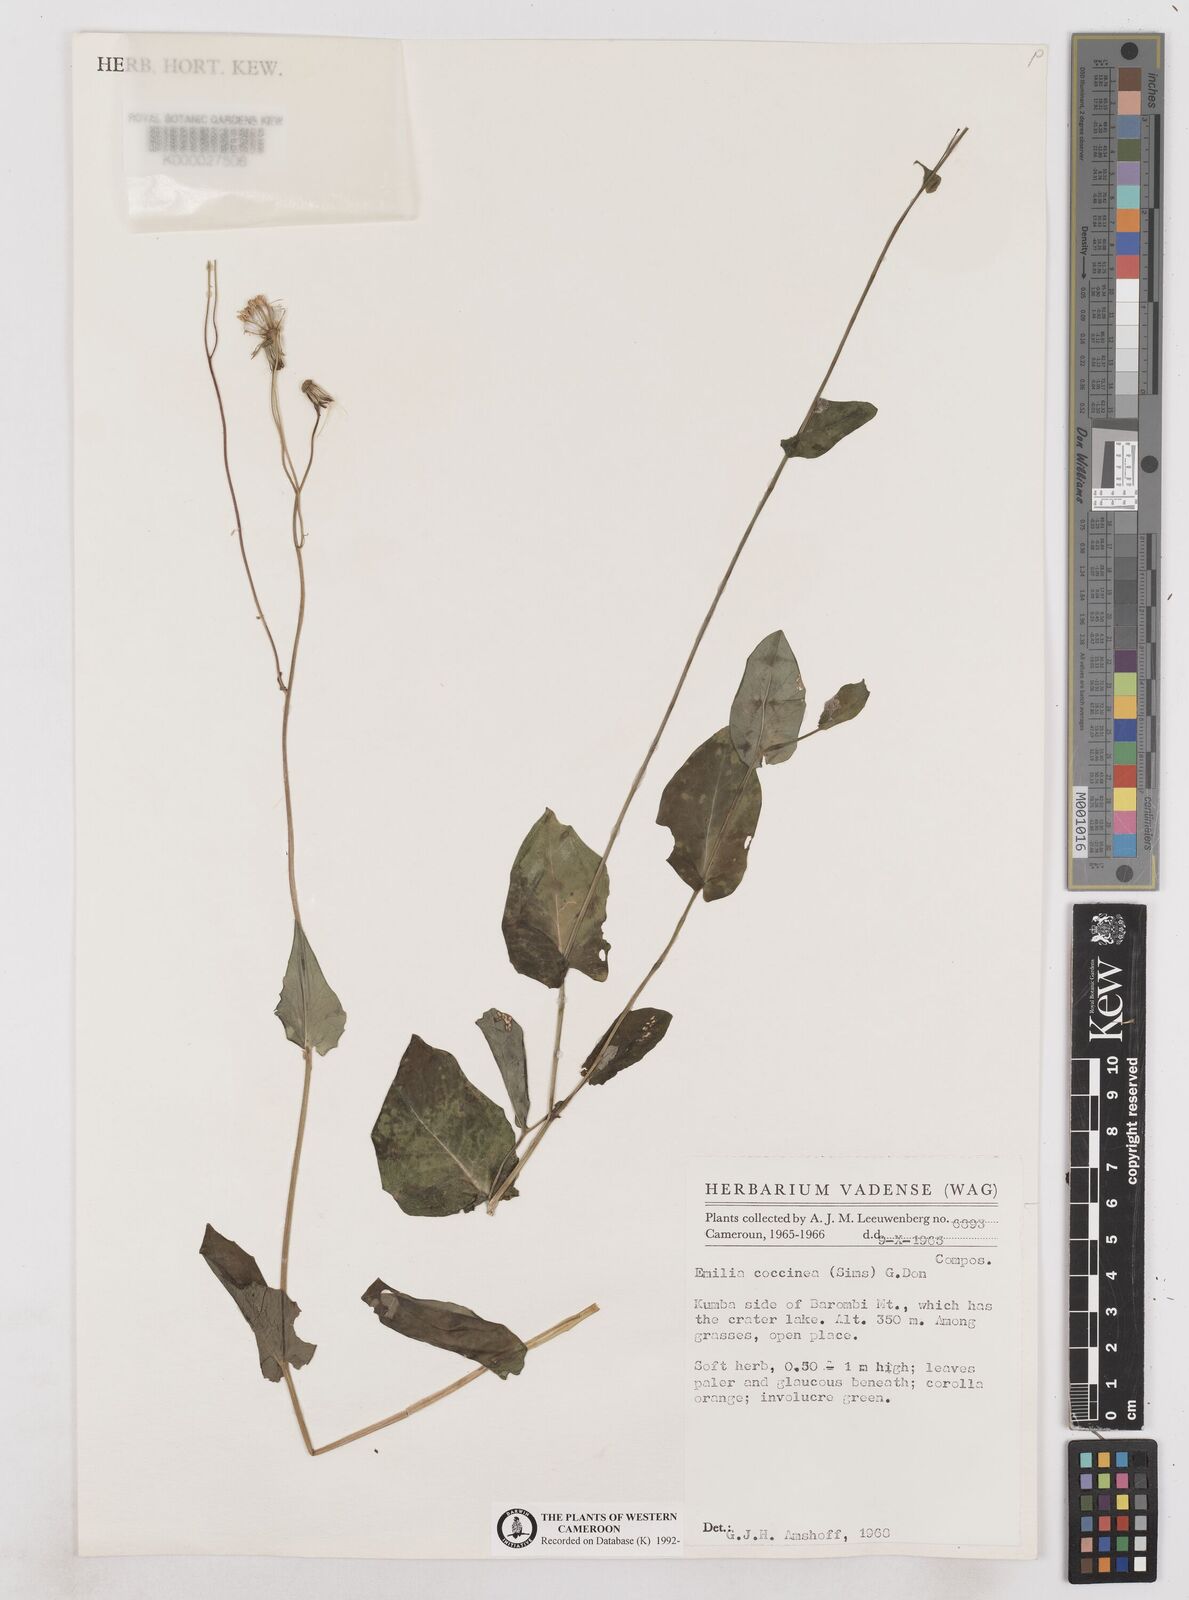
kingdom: Plantae
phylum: Tracheophyta
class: Magnoliopsida
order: Asterales
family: Asteraceae
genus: Emilia
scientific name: Emilia lisowskiana
